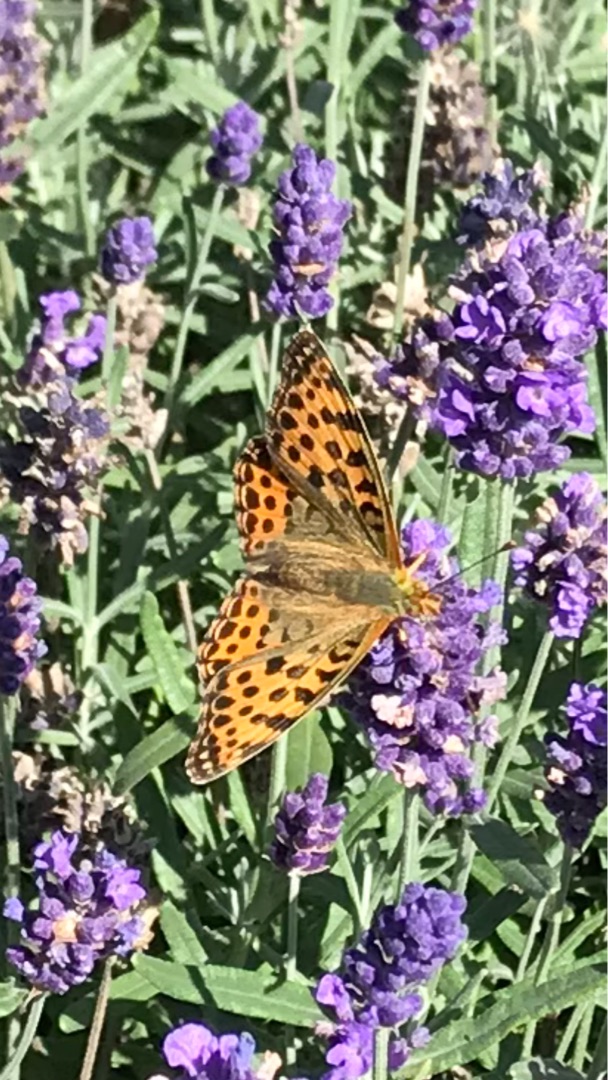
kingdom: Animalia
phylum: Arthropoda
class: Insecta
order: Lepidoptera
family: Nymphalidae
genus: Issoria
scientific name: Issoria lathonia
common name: Storplettet perlemorsommerfugl
